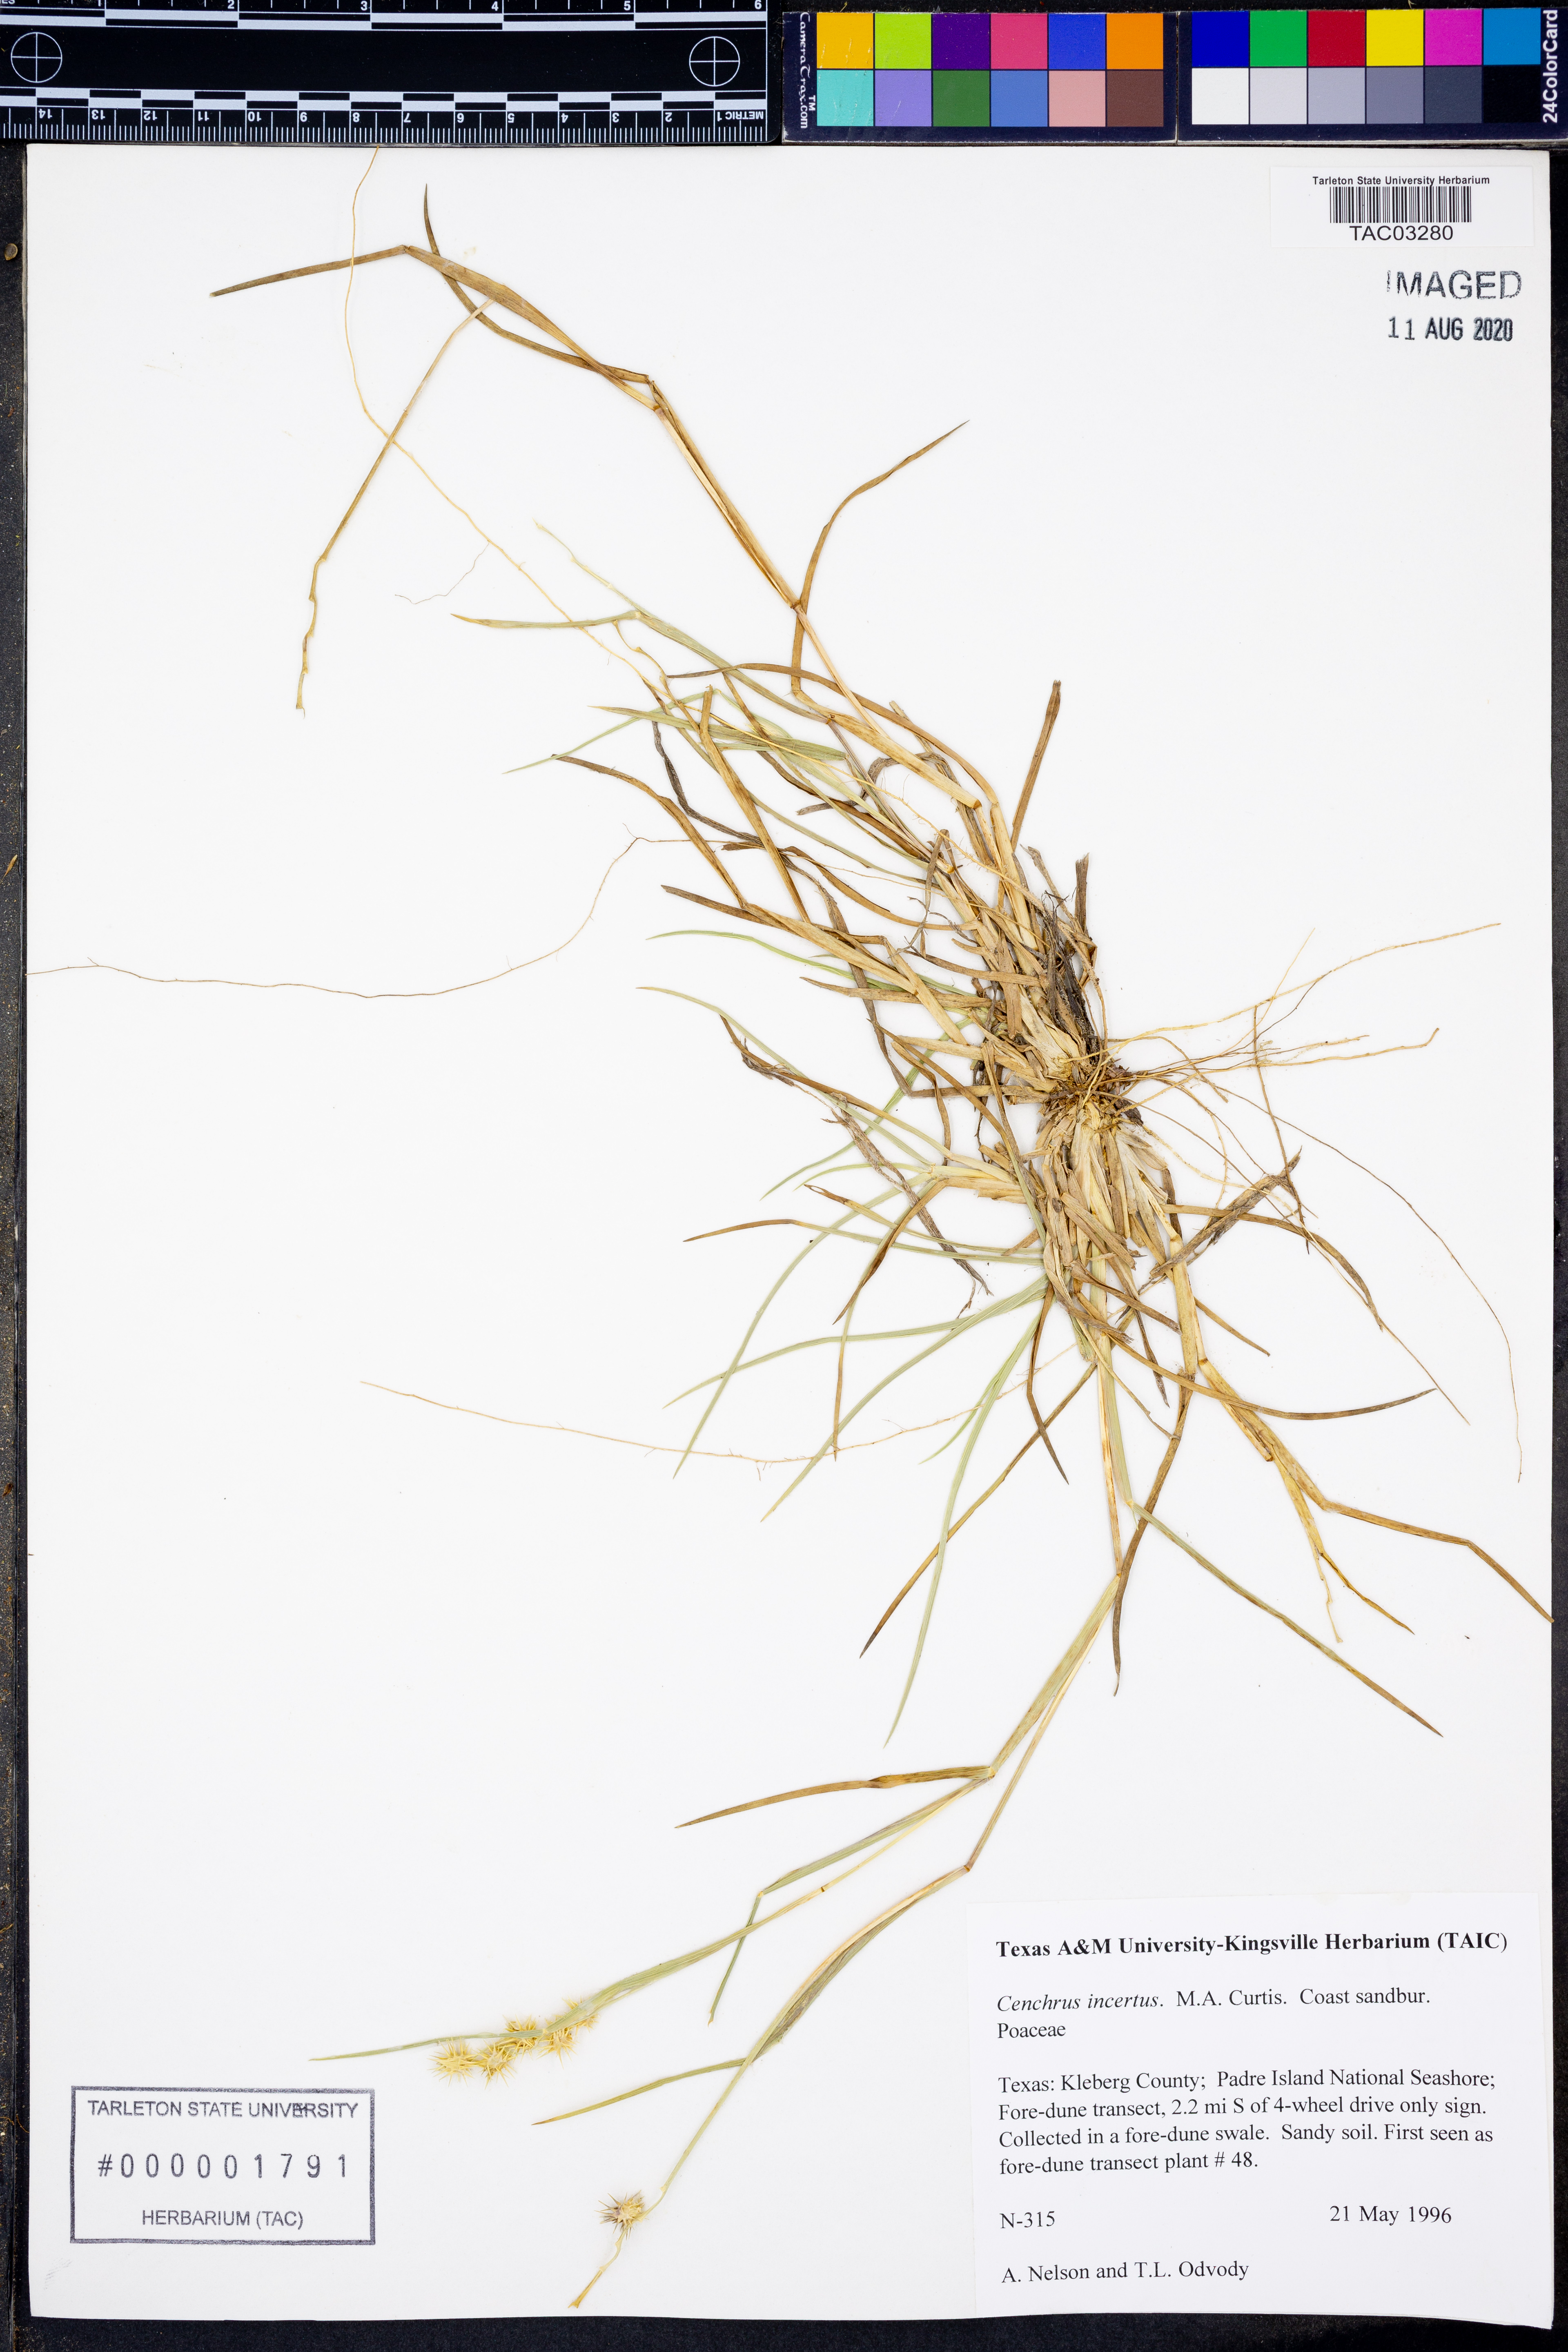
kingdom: Plantae
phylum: Tracheophyta
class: Liliopsida
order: Poales
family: Poaceae
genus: Cenchrus
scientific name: Cenchrus spinifex
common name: Coast sandbur
